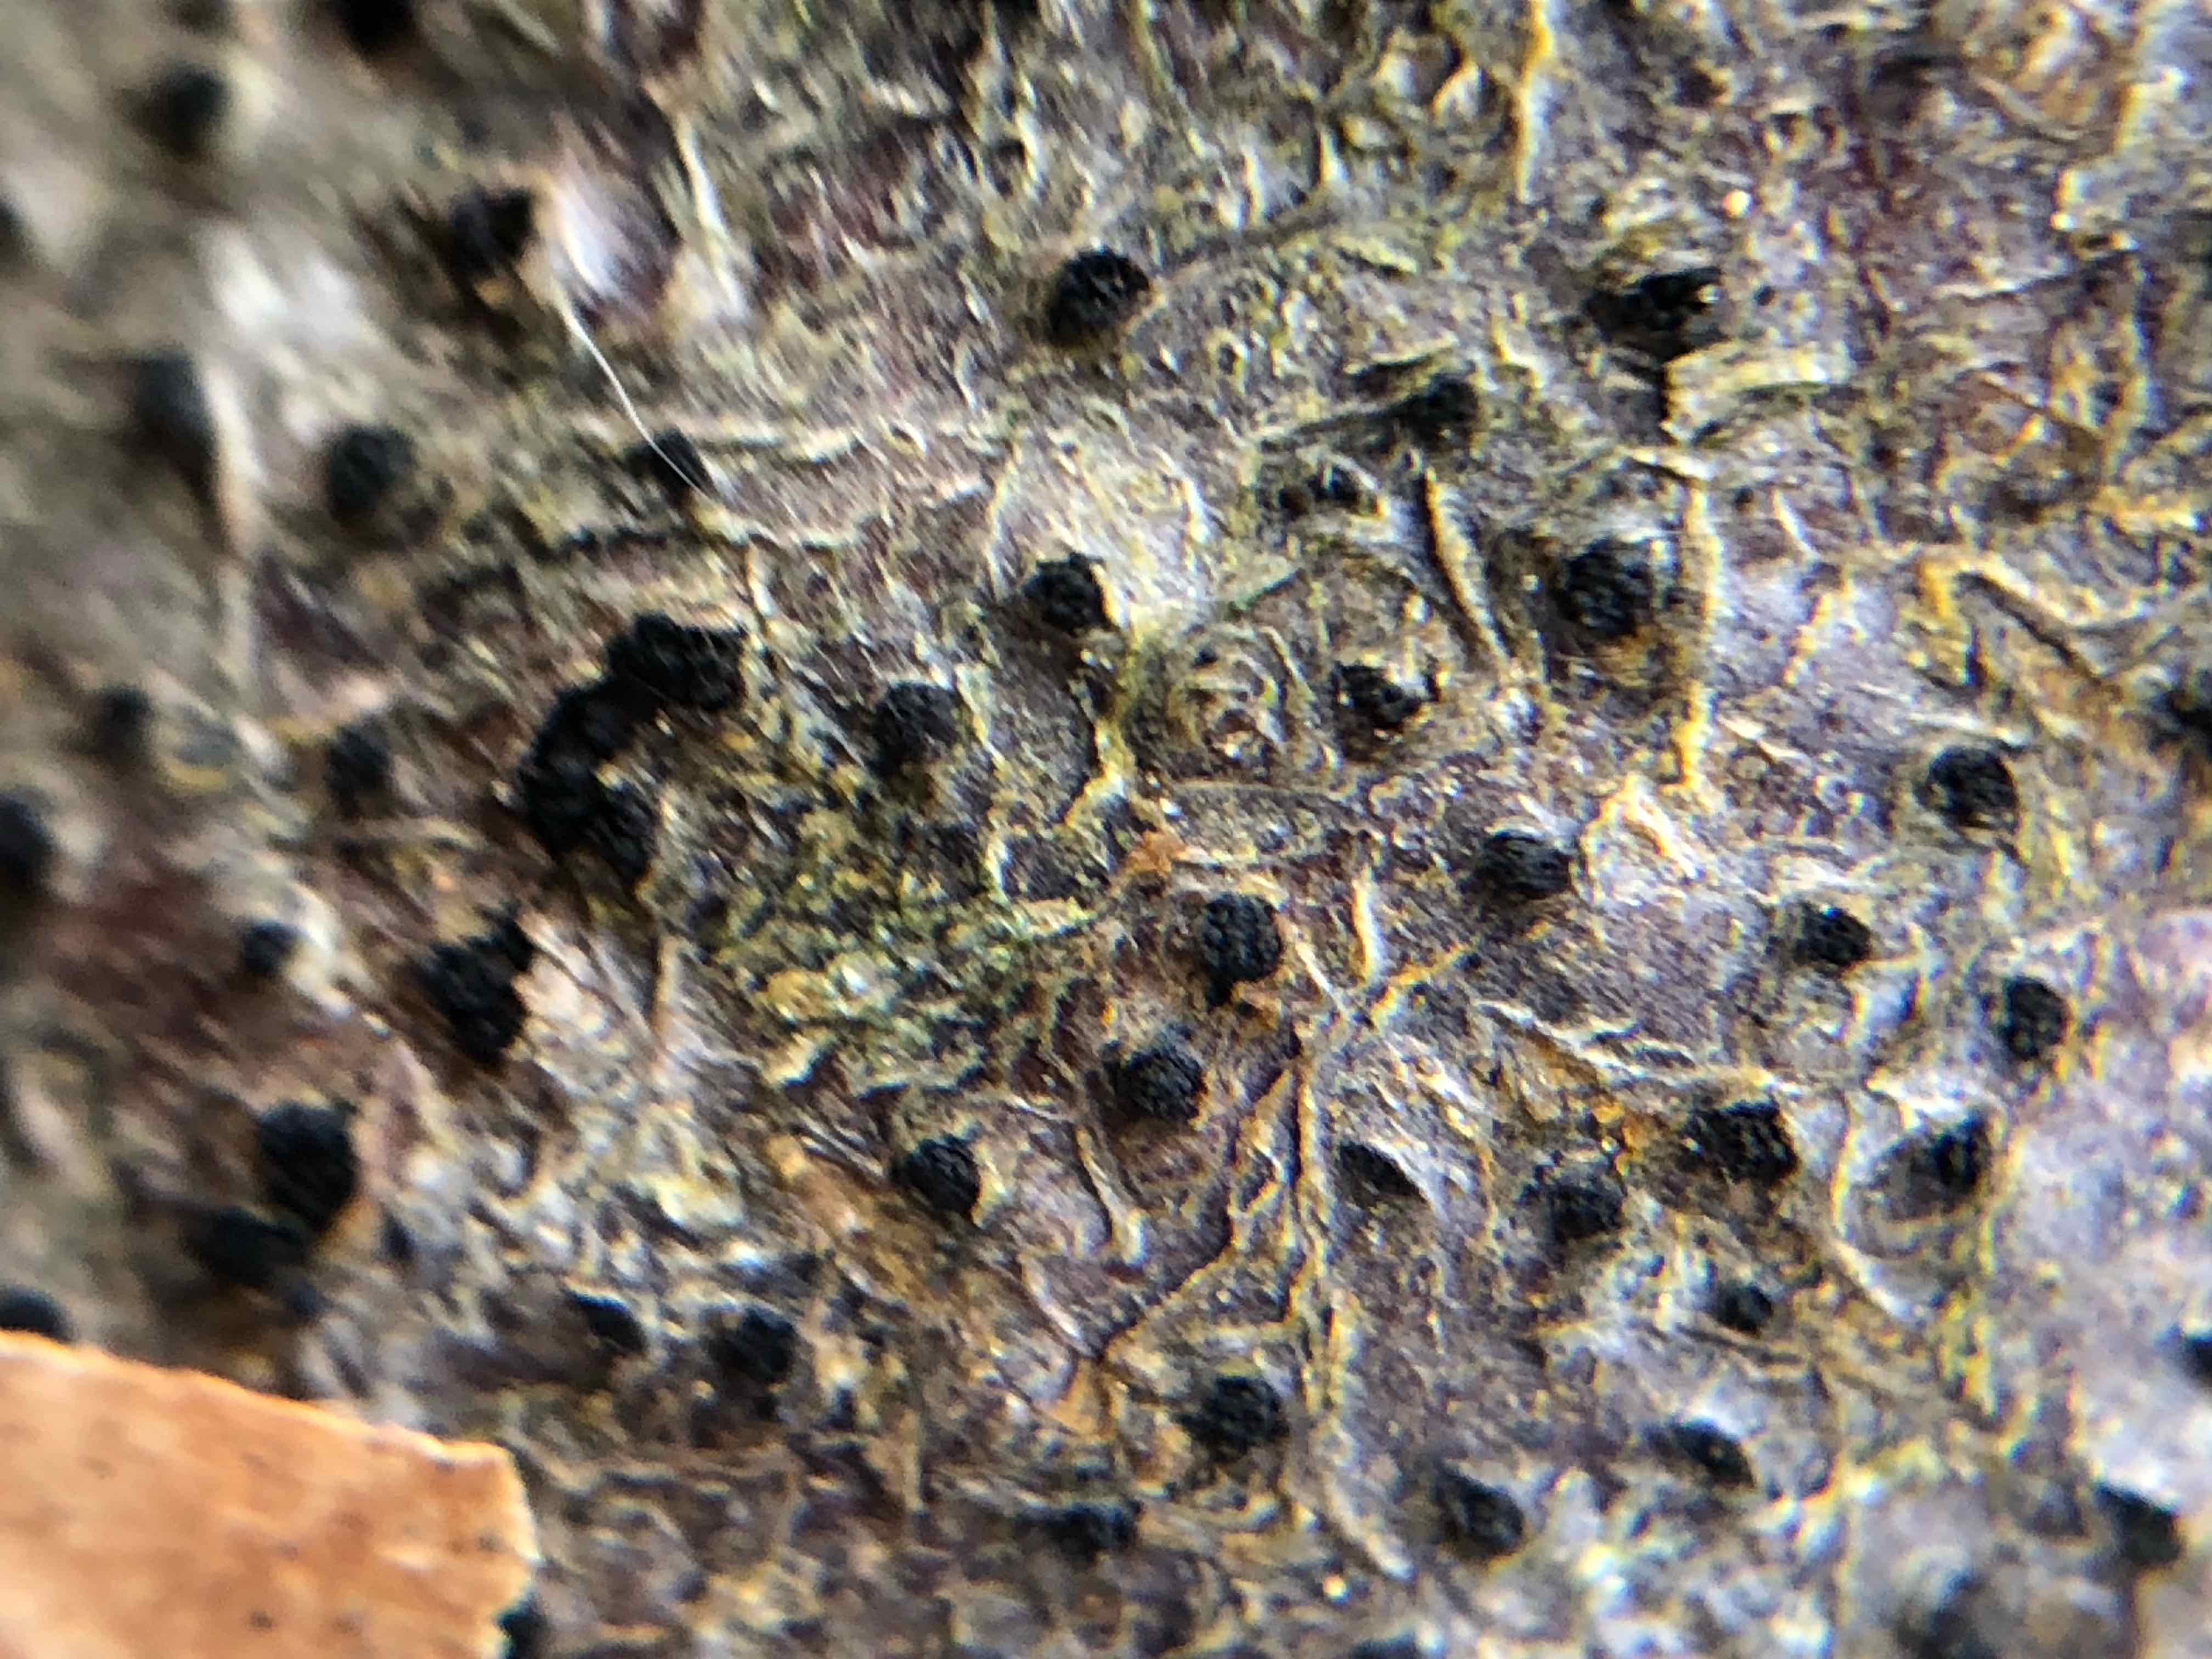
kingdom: Fungi
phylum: Ascomycota
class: Sordariomycetes
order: Xylariales
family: Diatrypaceae
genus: Eutypella
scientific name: Eutypella quaternata
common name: bøge-korsprik
